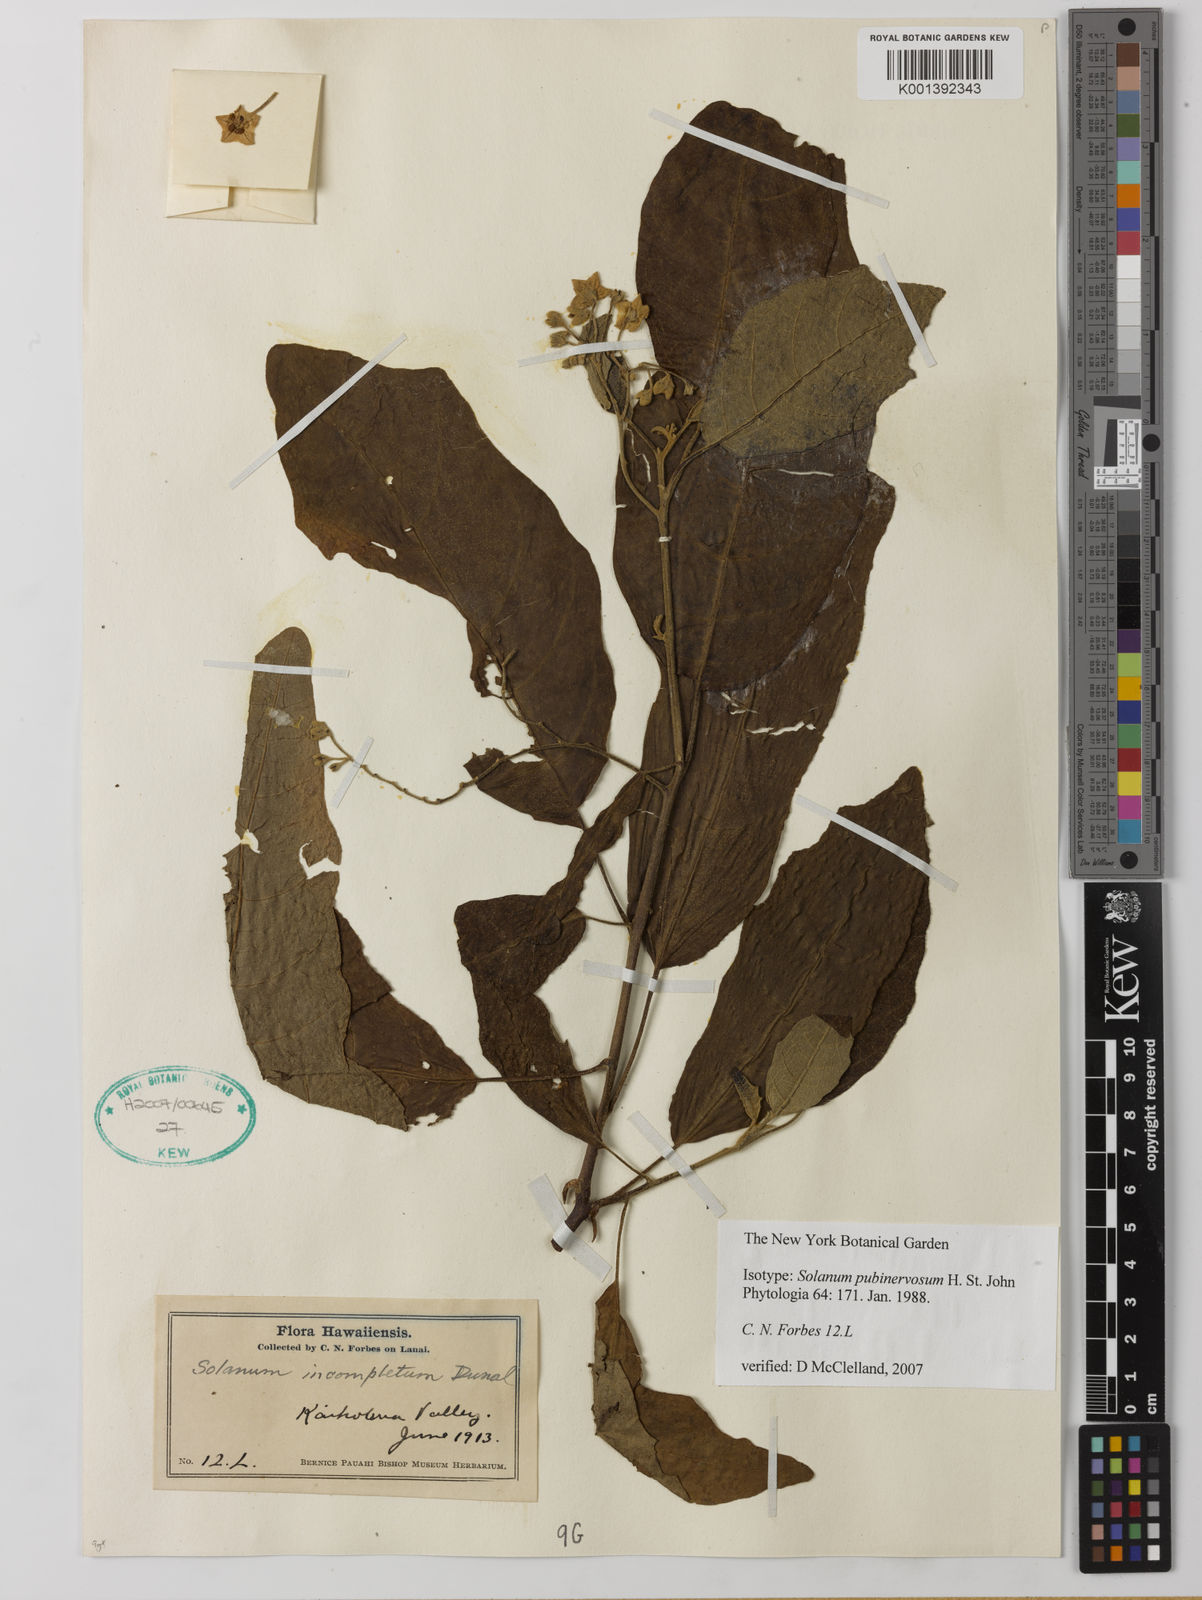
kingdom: Plantae
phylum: Tracheophyta
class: Magnoliopsida
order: Solanales
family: Solanaceae
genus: Solanum
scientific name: Solanum hillebrandii
